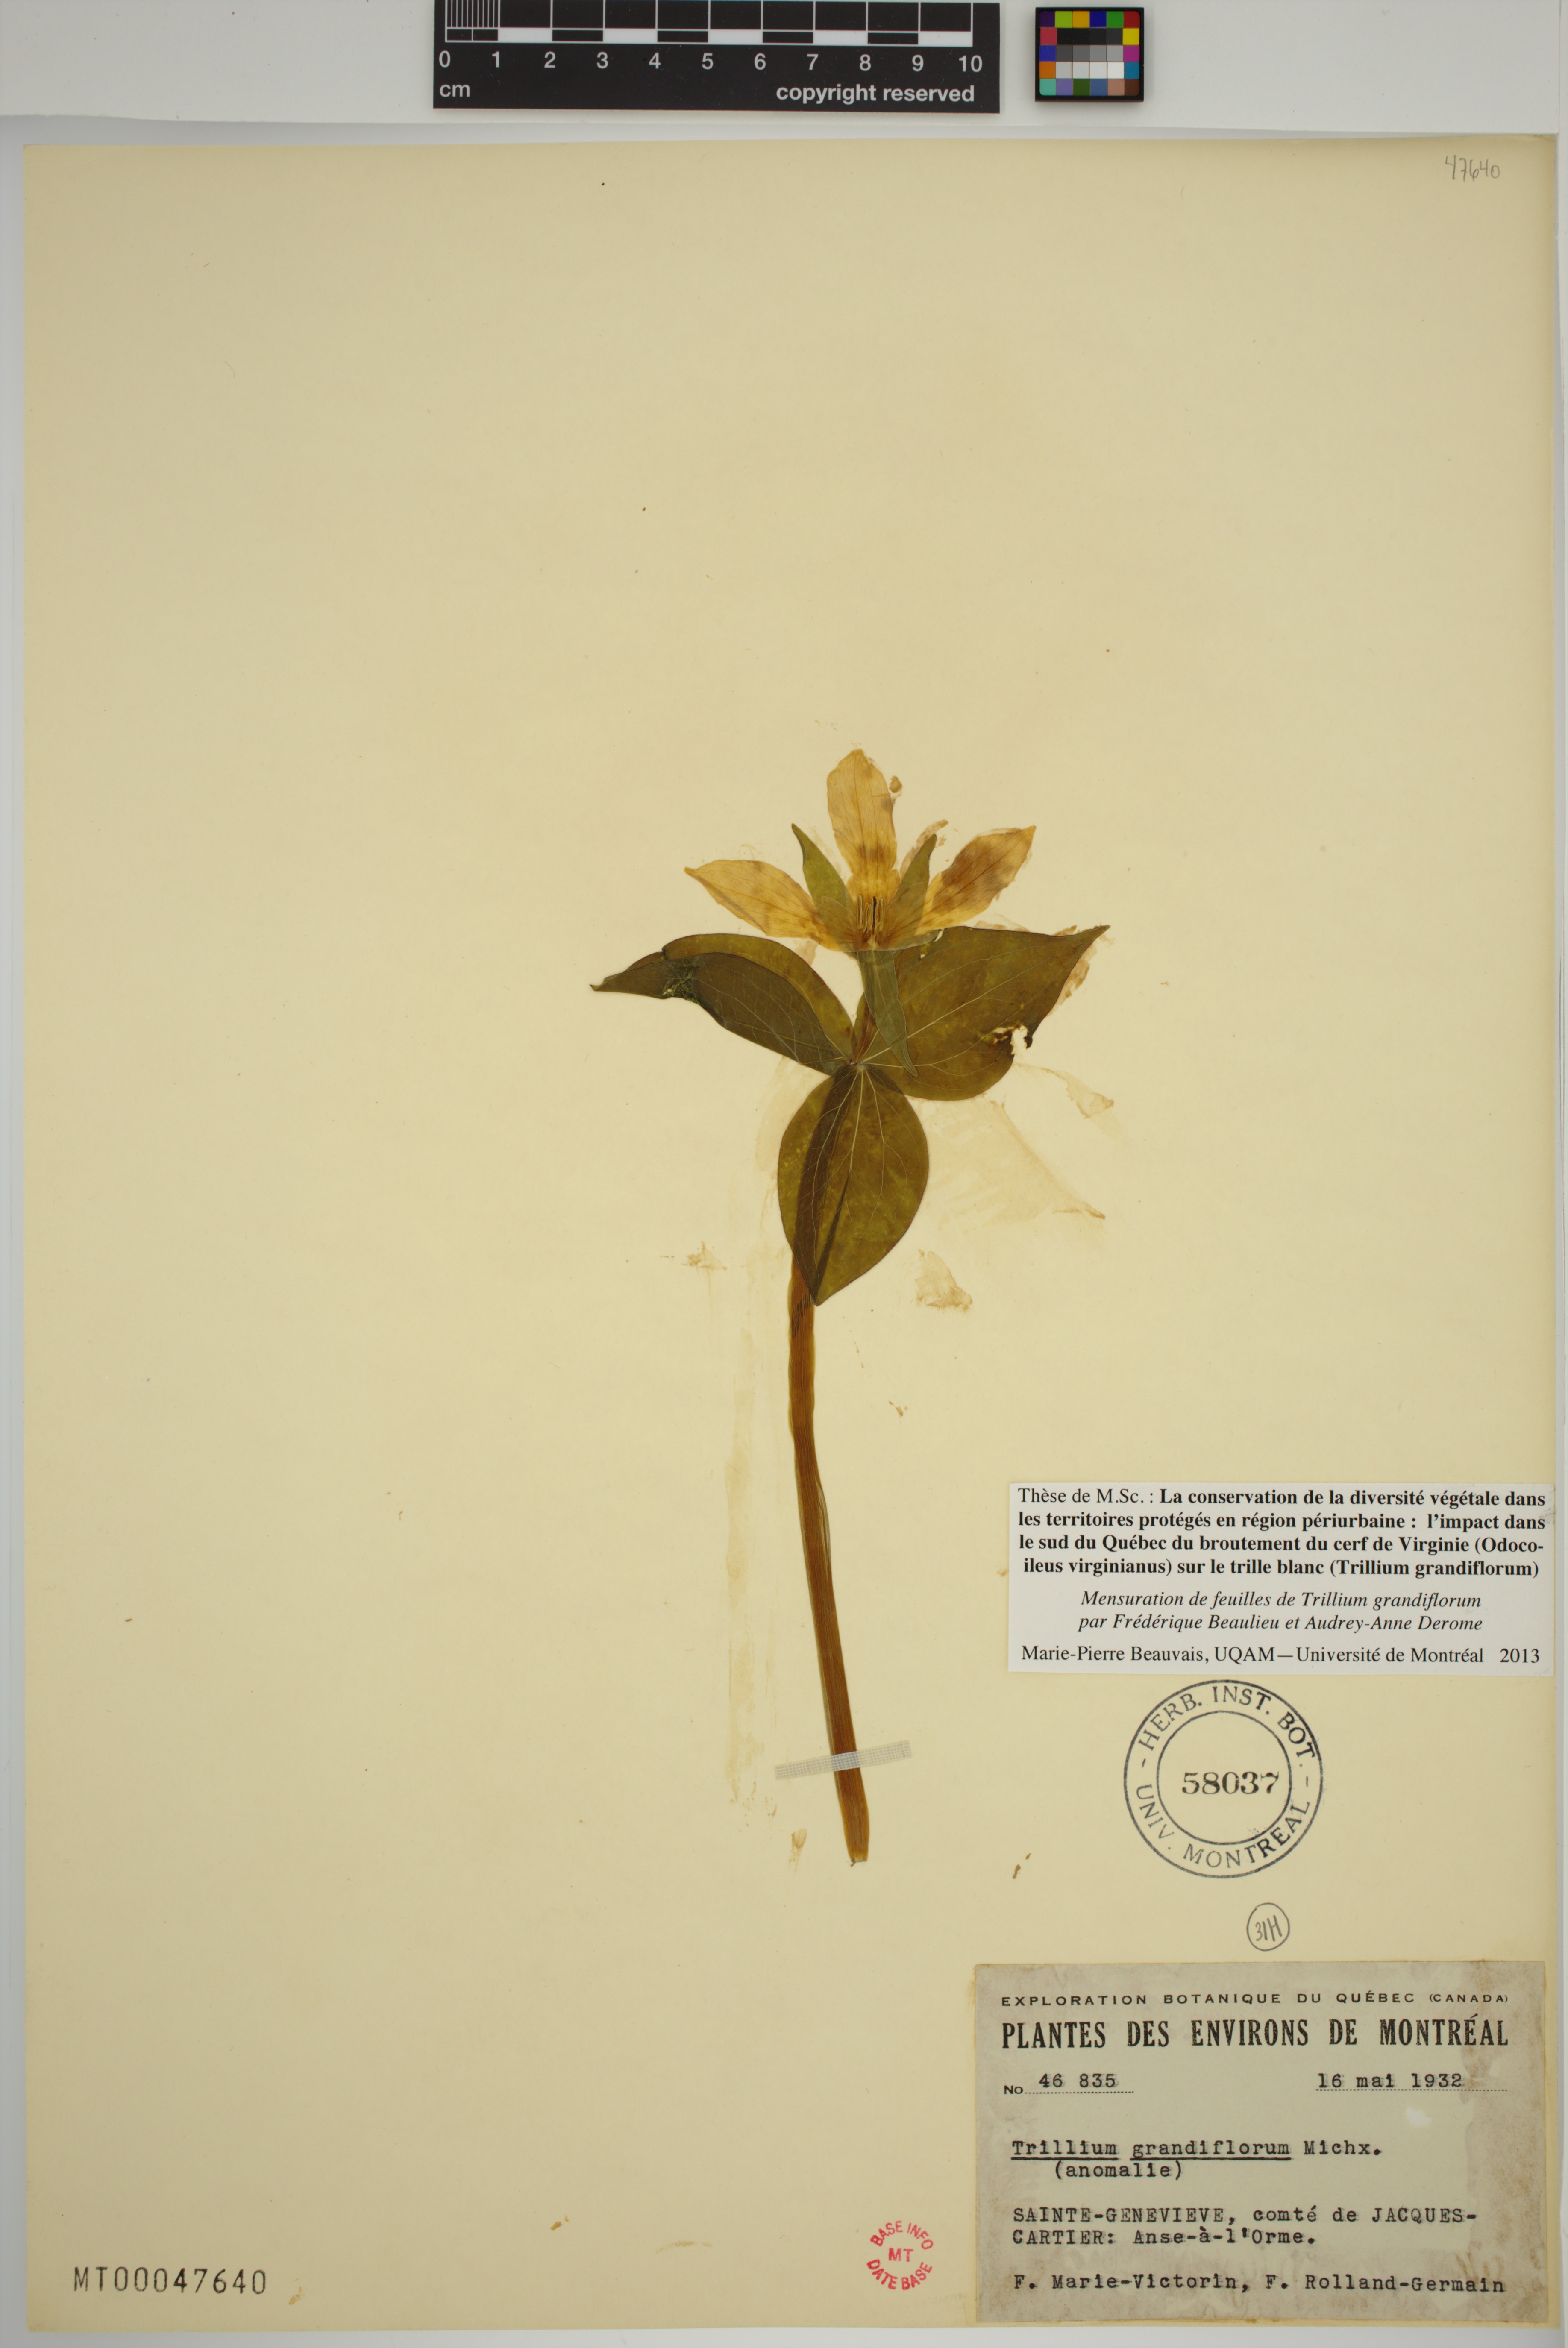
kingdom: Plantae
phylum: Tracheophyta
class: Liliopsida
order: Liliales
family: Melanthiaceae
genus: Trillium
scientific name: Trillium grandiflorum
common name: Great white trillium
